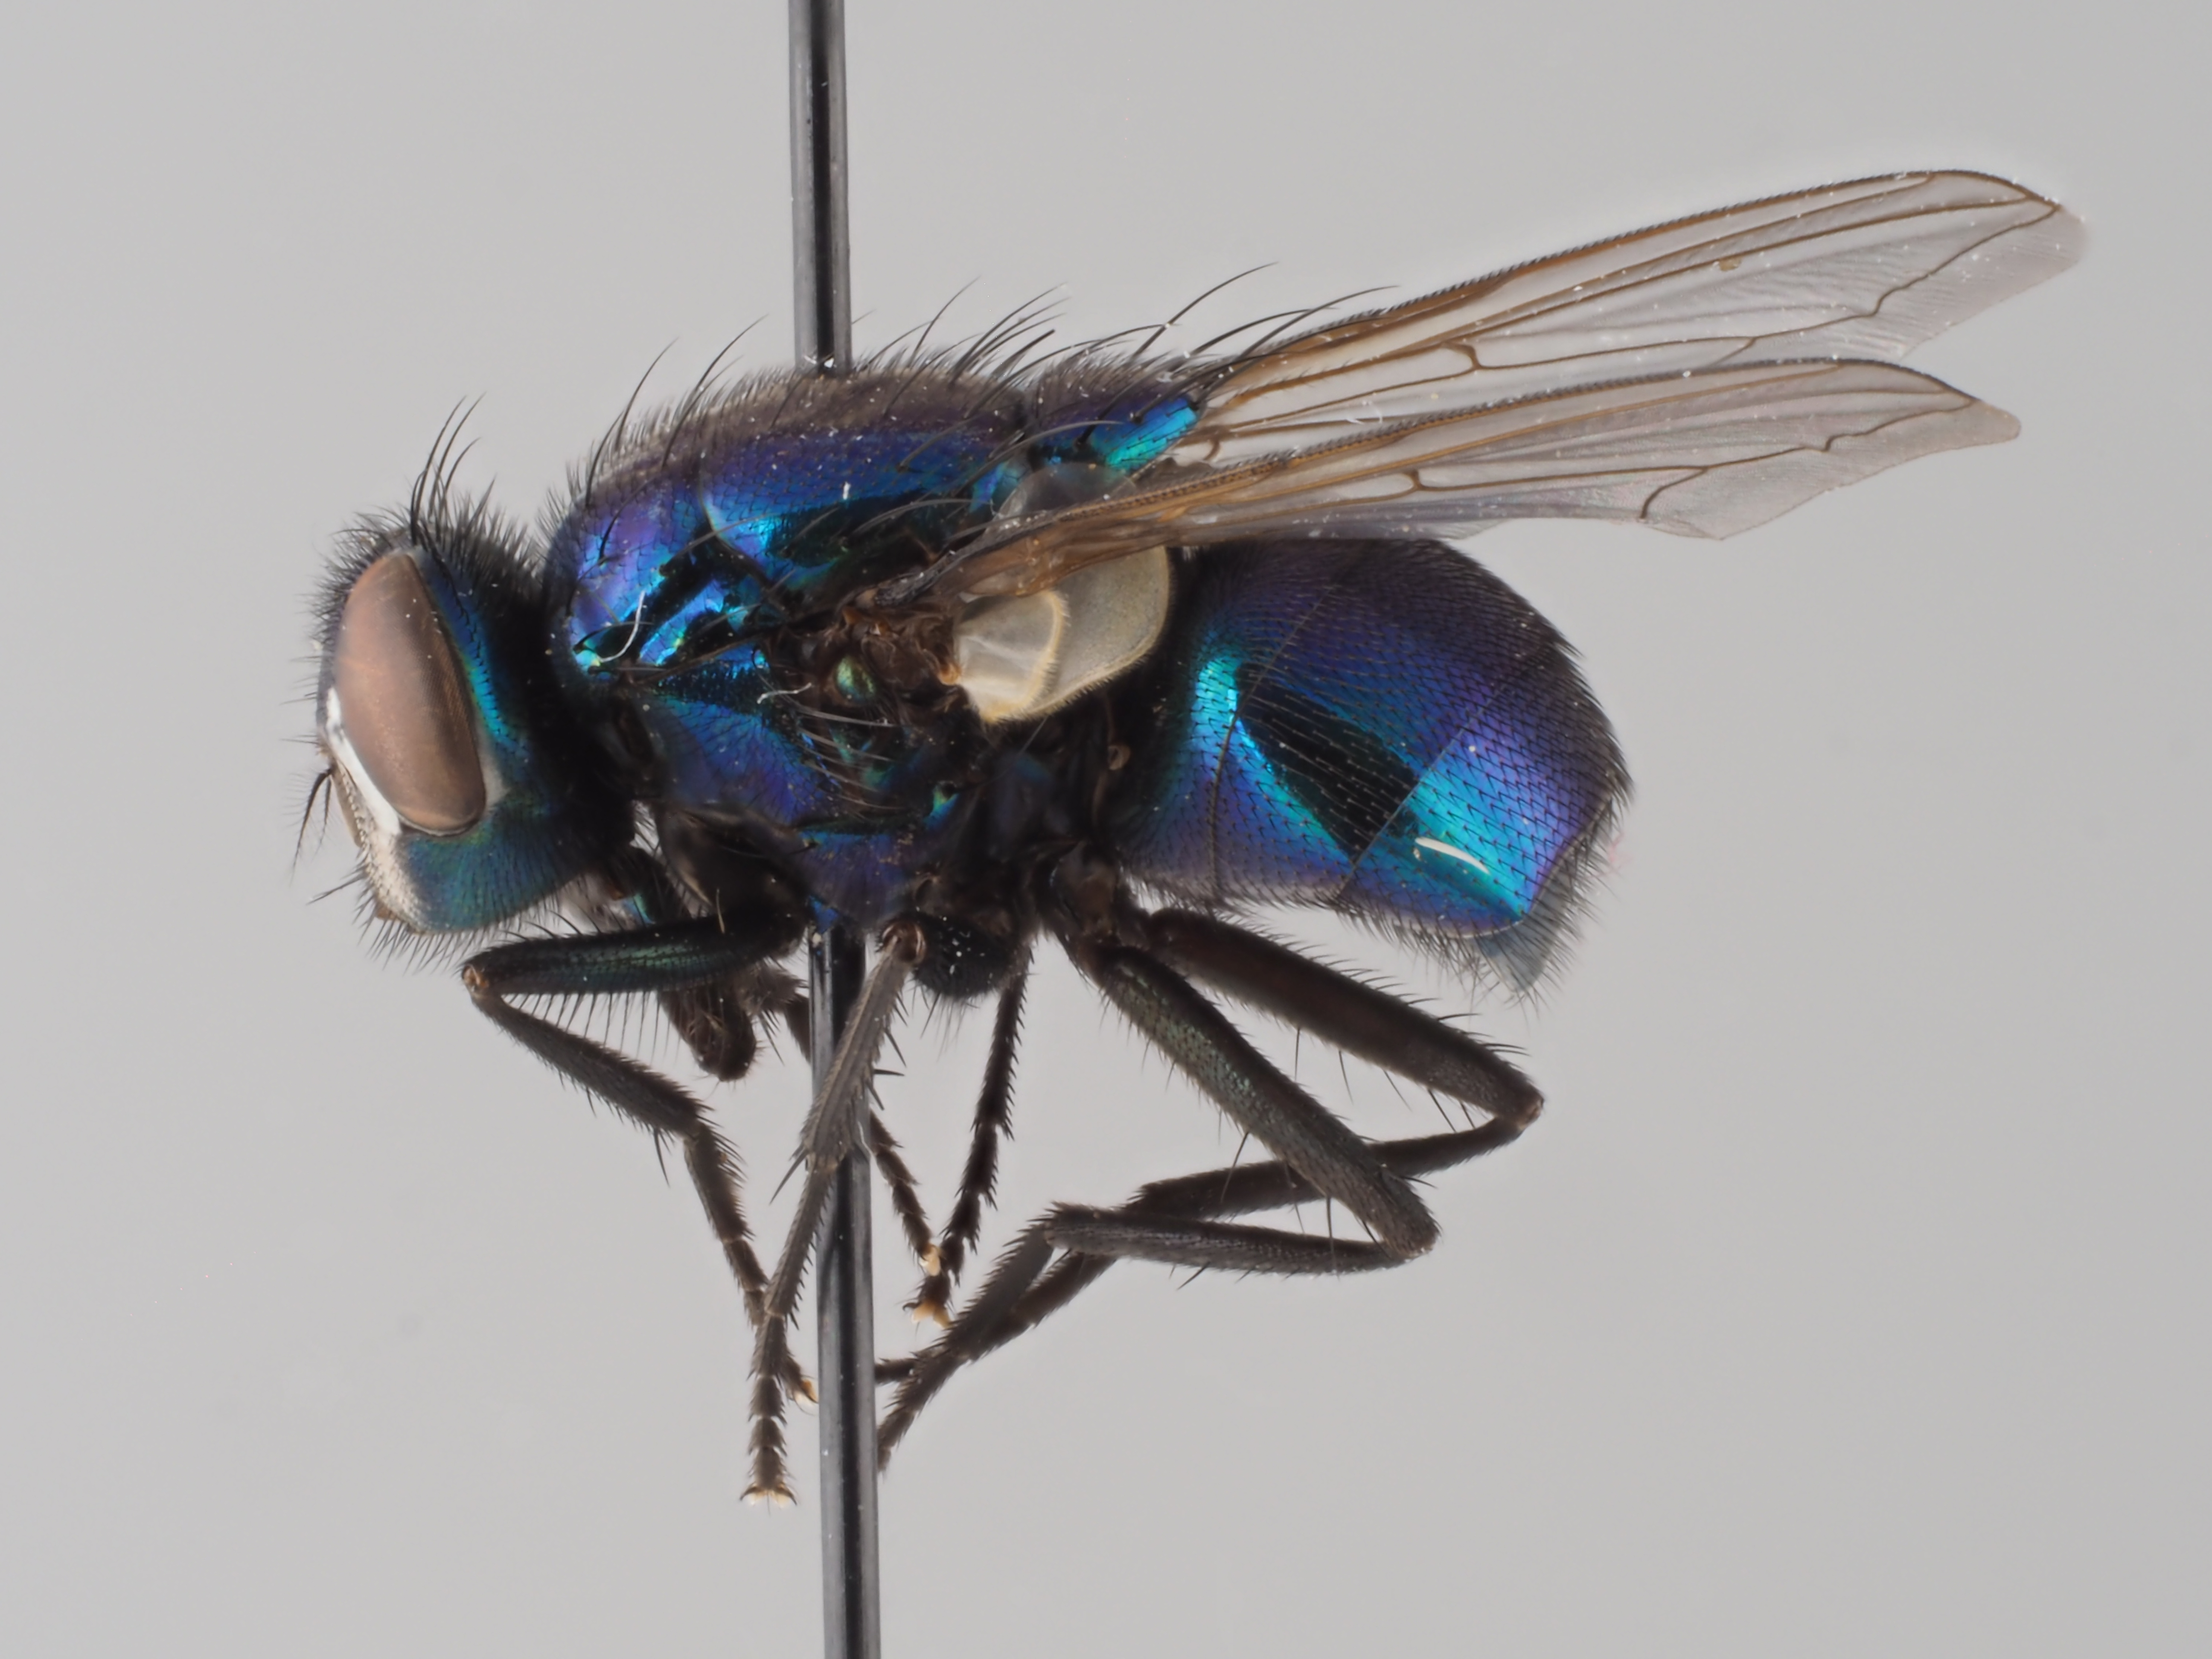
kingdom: Animalia
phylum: Arthropoda
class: Insecta
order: Diptera
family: Muscidae
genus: Neomyia
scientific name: Neomyia viridescens
